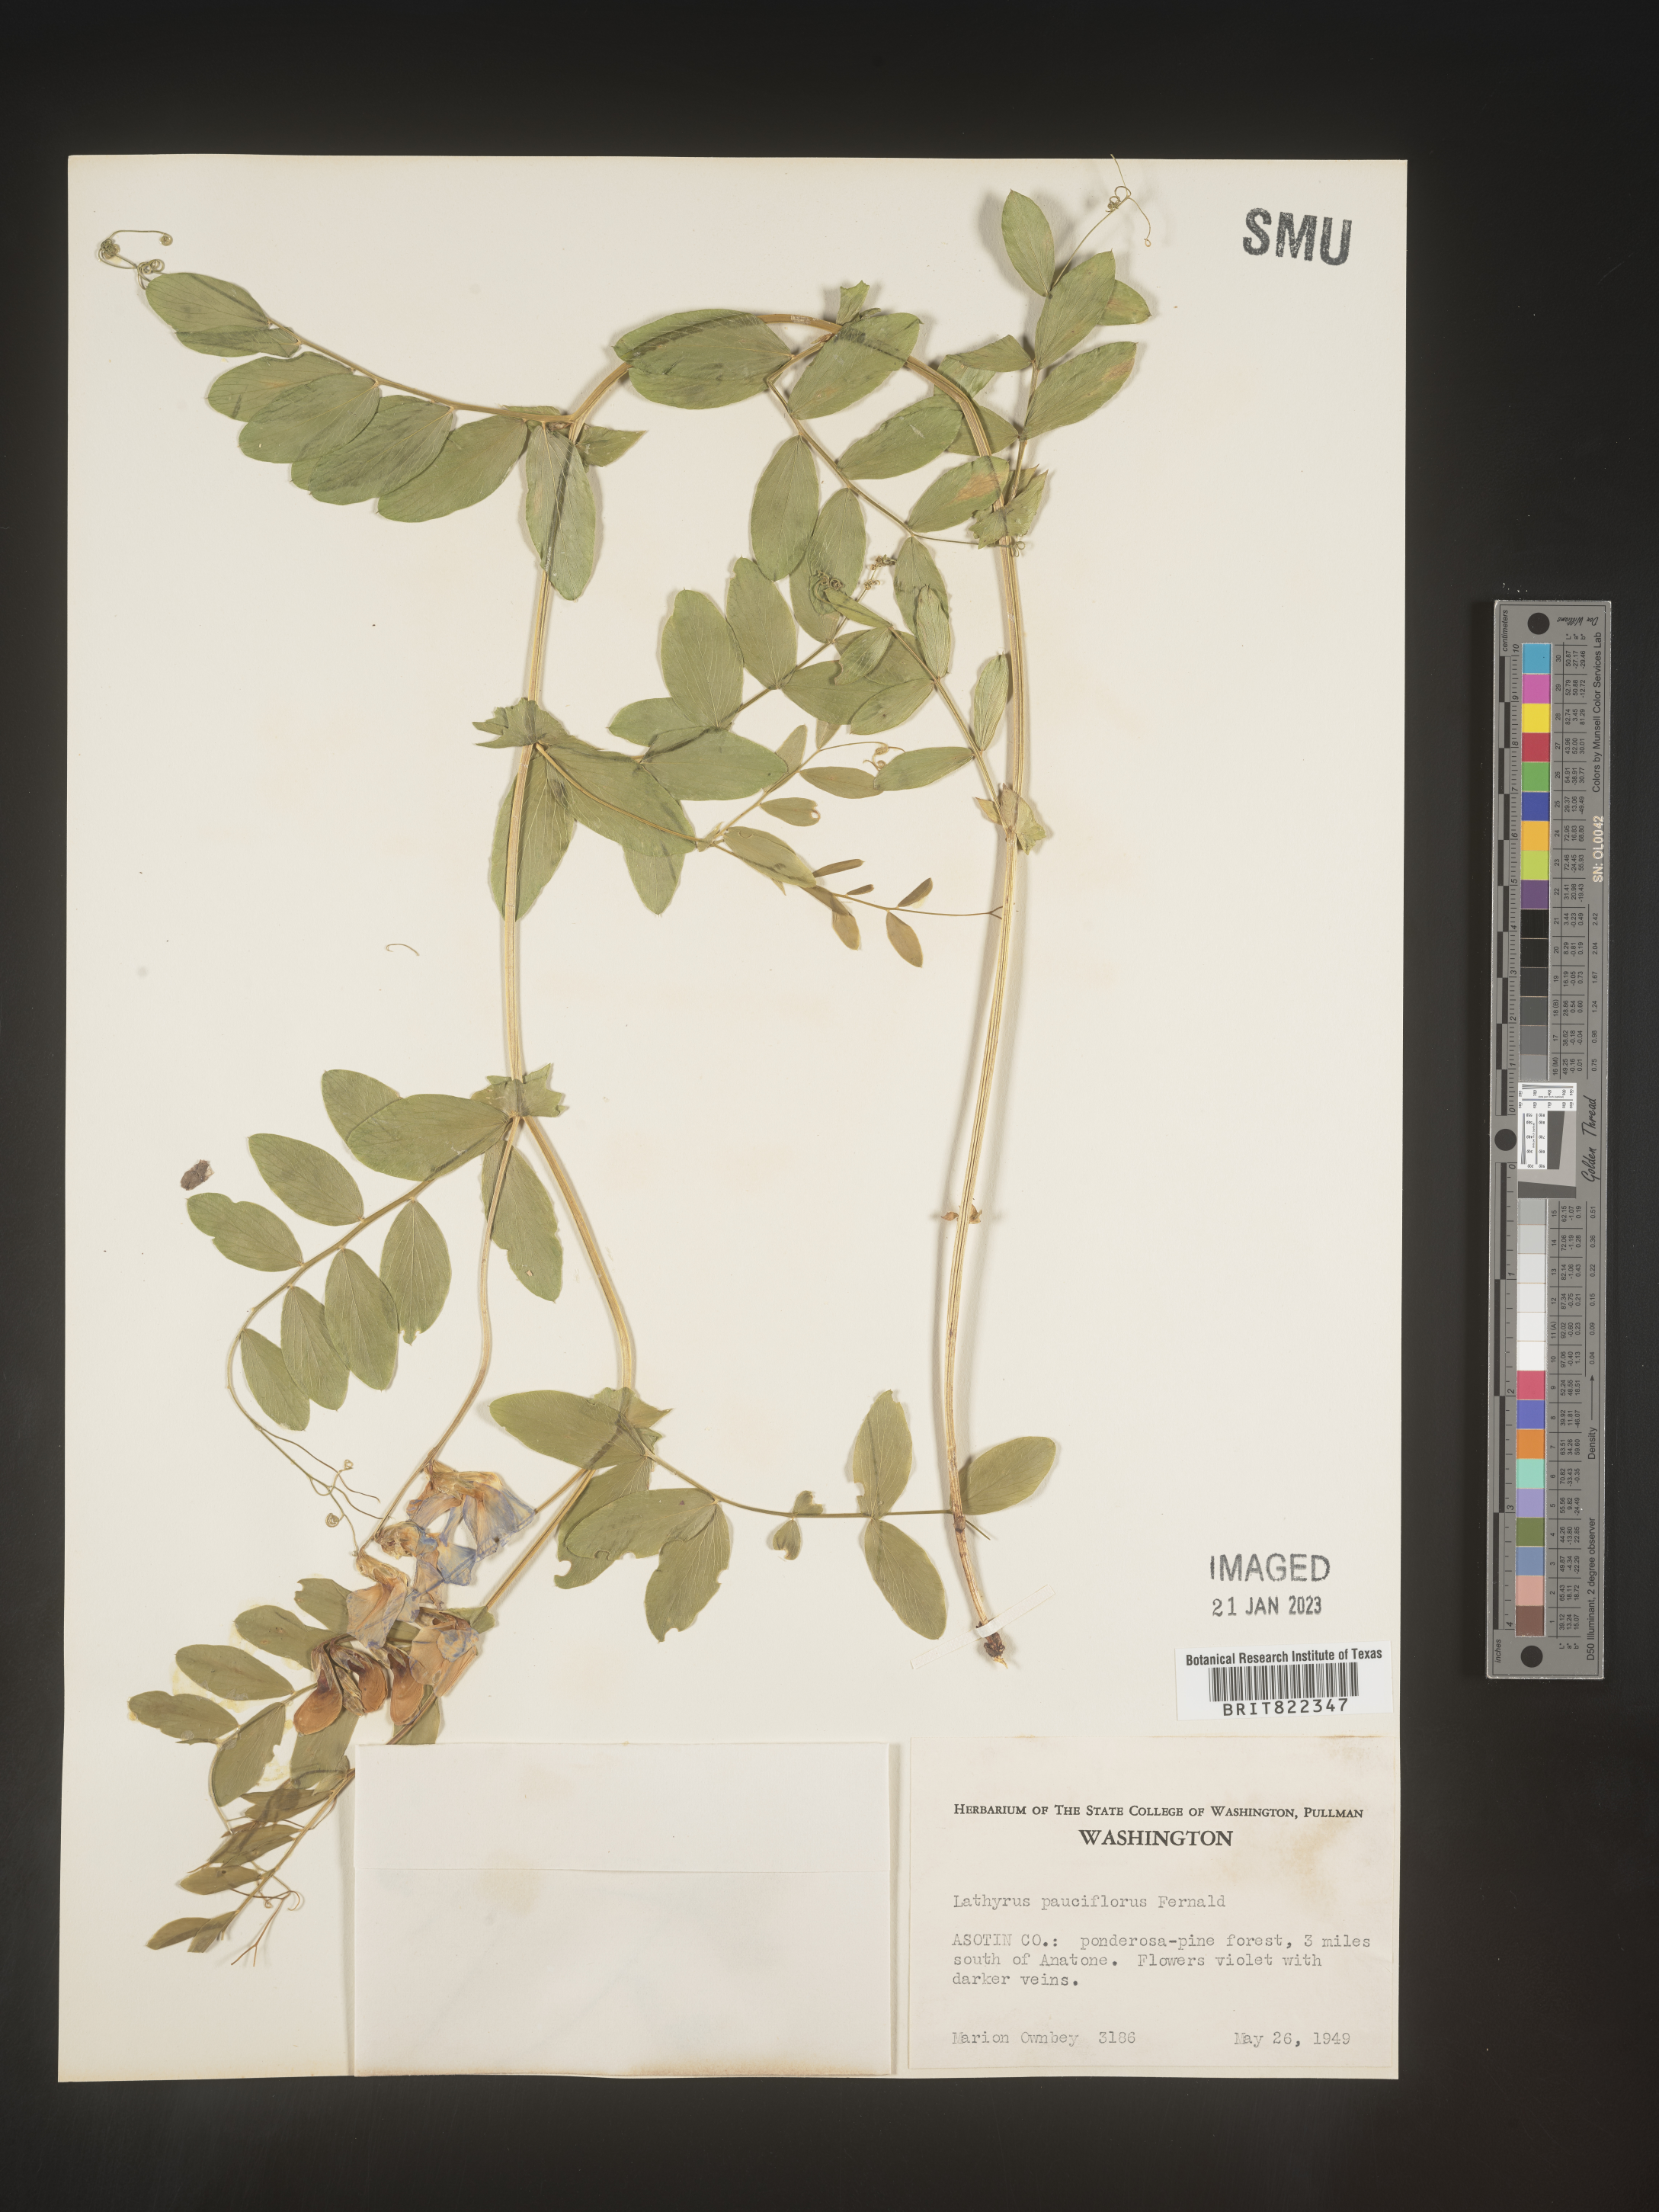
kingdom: Plantae
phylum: Tracheophyta
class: Magnoliopsida
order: Fabales
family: Fabaceae
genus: Lathyrus
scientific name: Lathyrus pauciflorus
